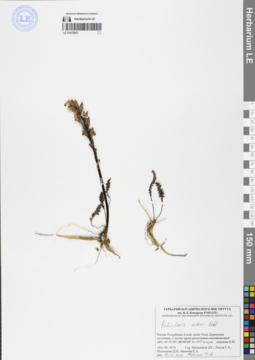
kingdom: Plantae
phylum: Tracheophyta
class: Magnoliopsida
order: Lamiales
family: Orobanchaceae
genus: Pedicularis
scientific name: Pedicularis oederi
